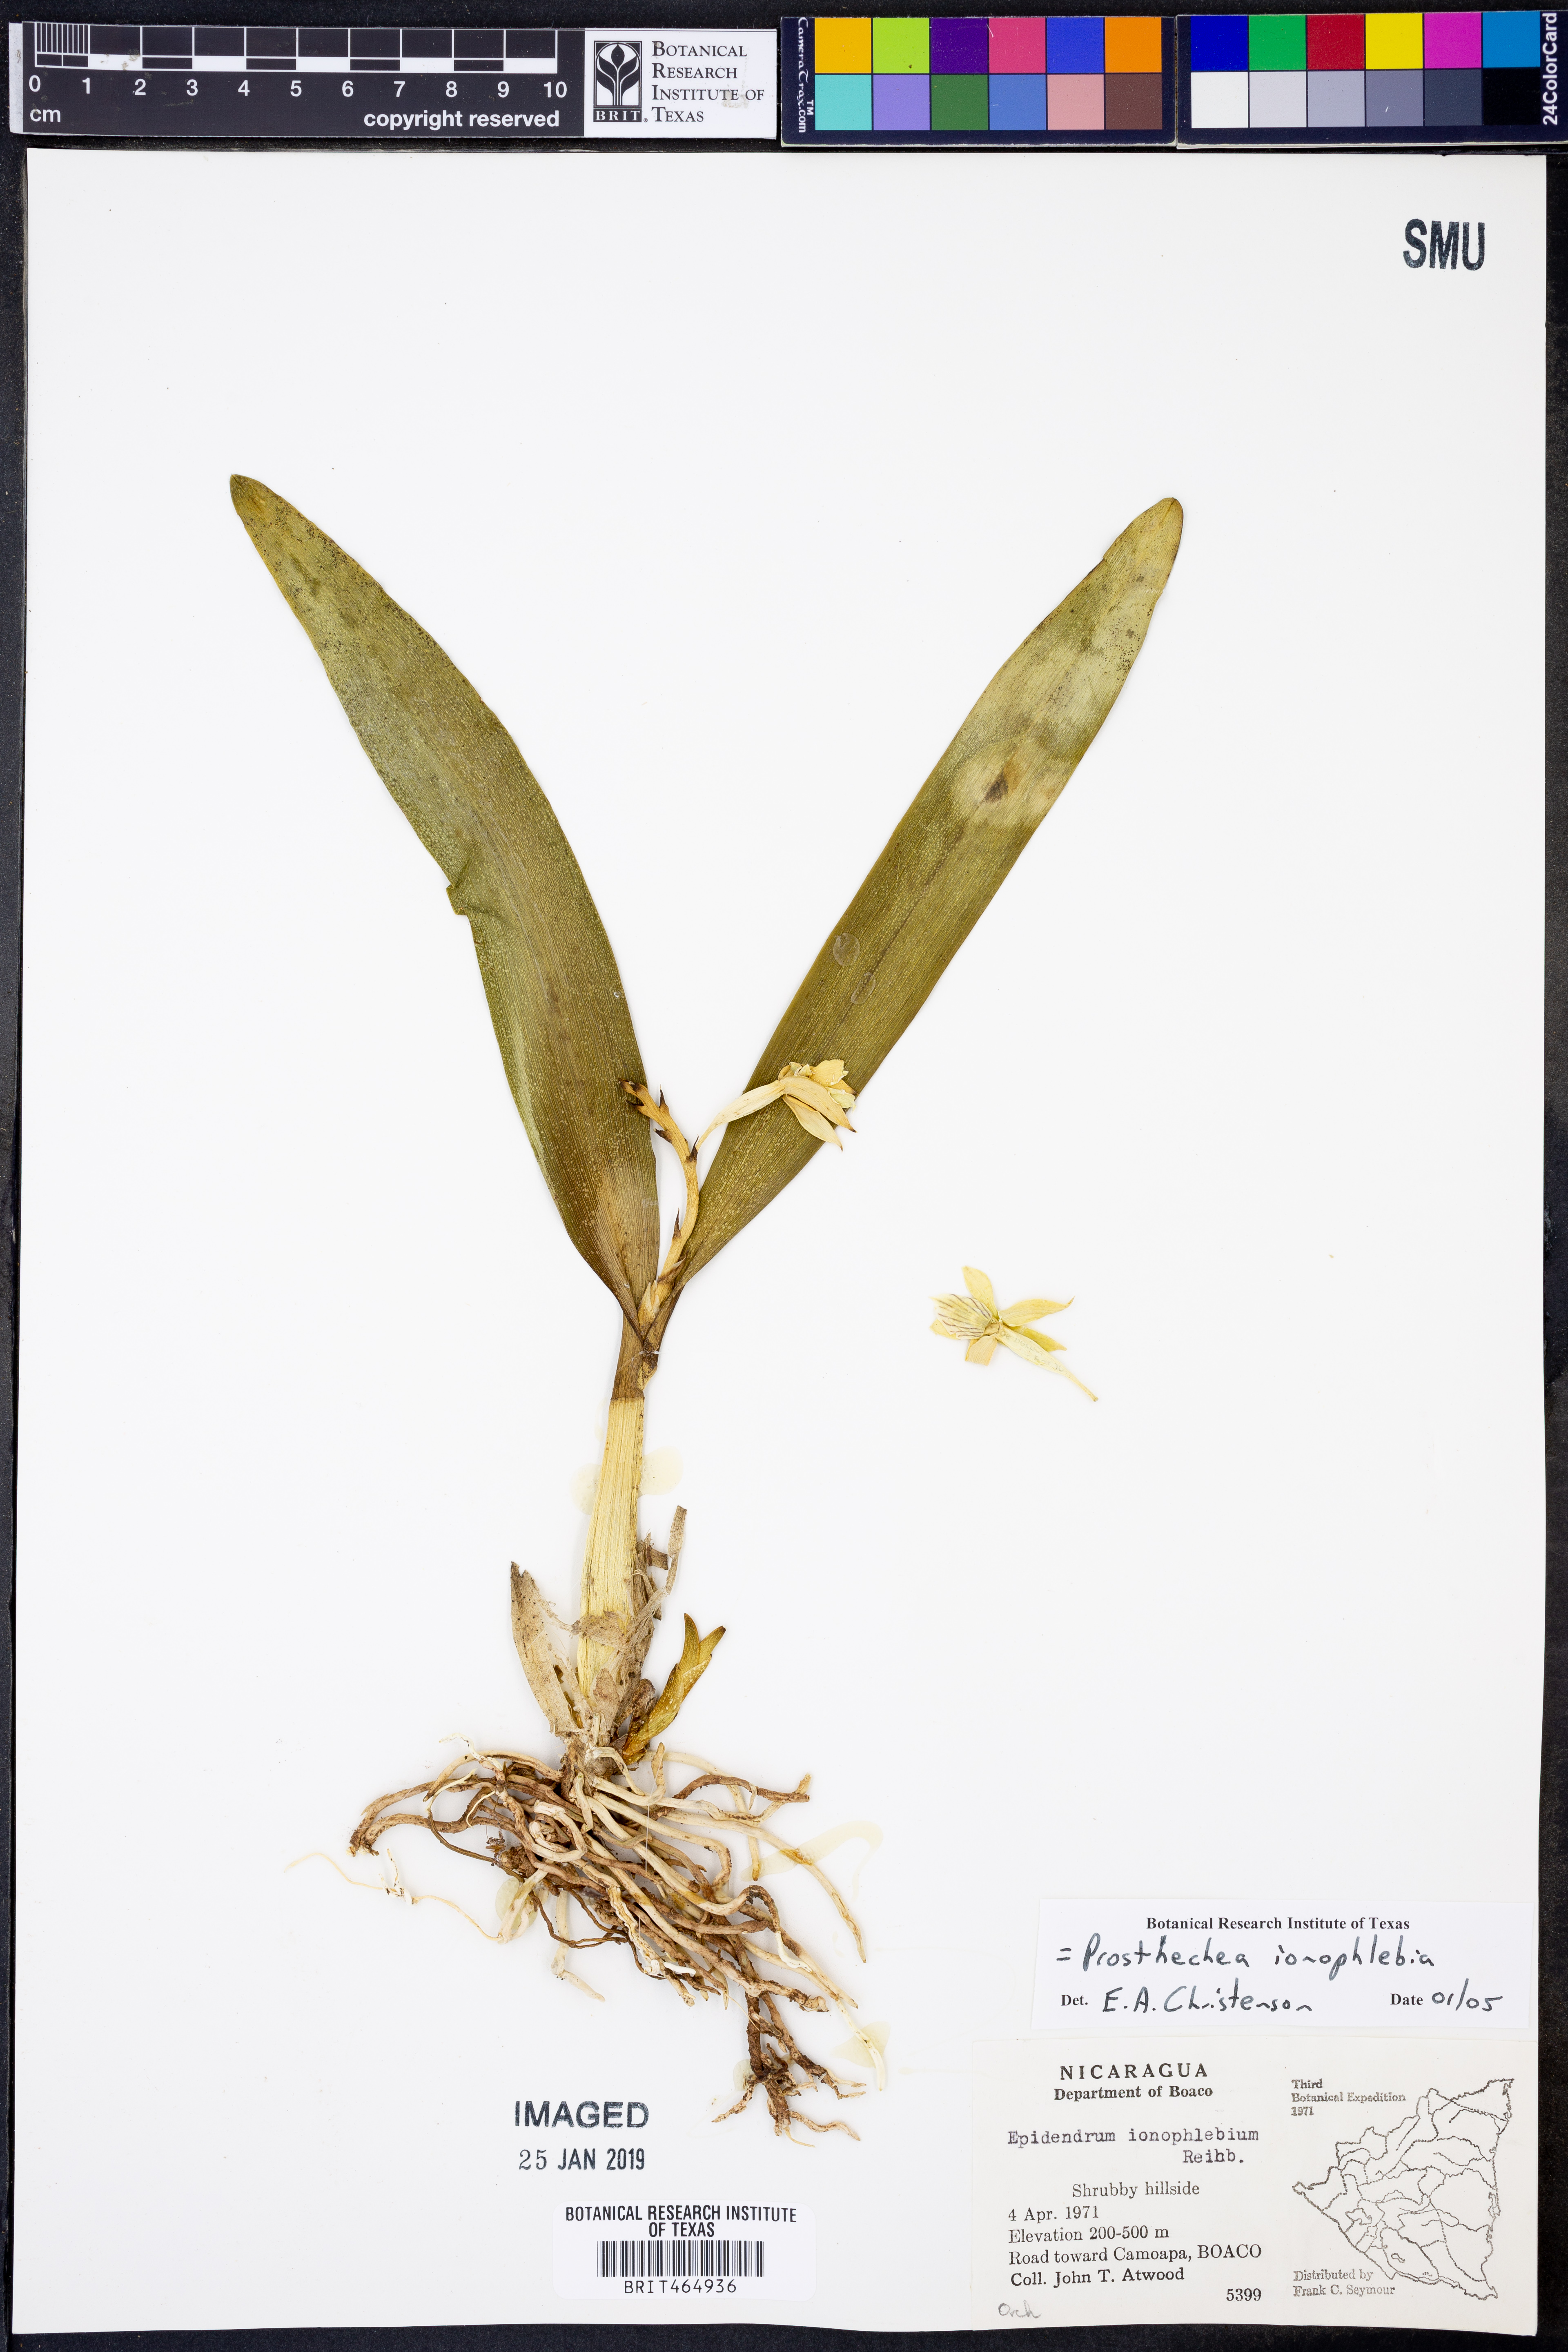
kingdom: Plantae
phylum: Tracheophyta
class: Liliopsida
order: Asparagales
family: Orchidaceae
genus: Prosthechea
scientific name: Prosthechea ionophlebia
